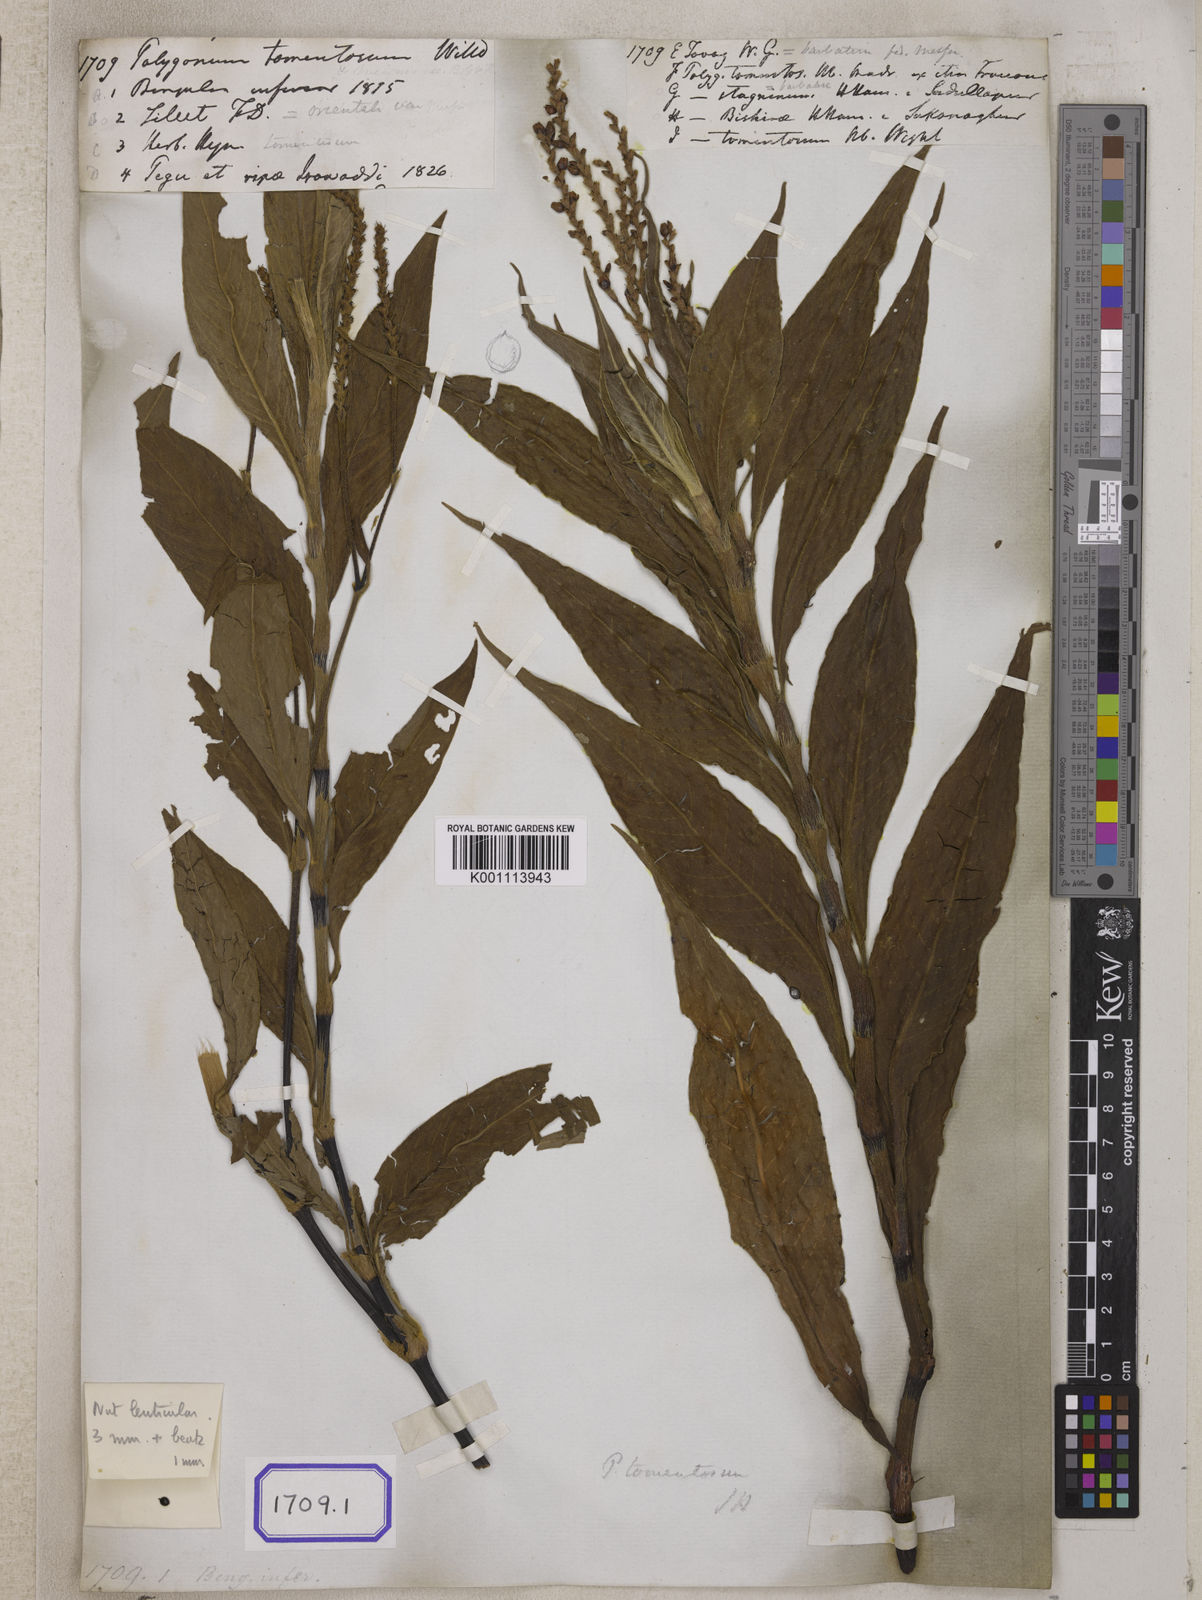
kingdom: Plantae
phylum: Tracheophyta
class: Magnoliopsida
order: Caryophyllales
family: Polygonaceae
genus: Persicaria
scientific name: Persicaria madagascariensis
